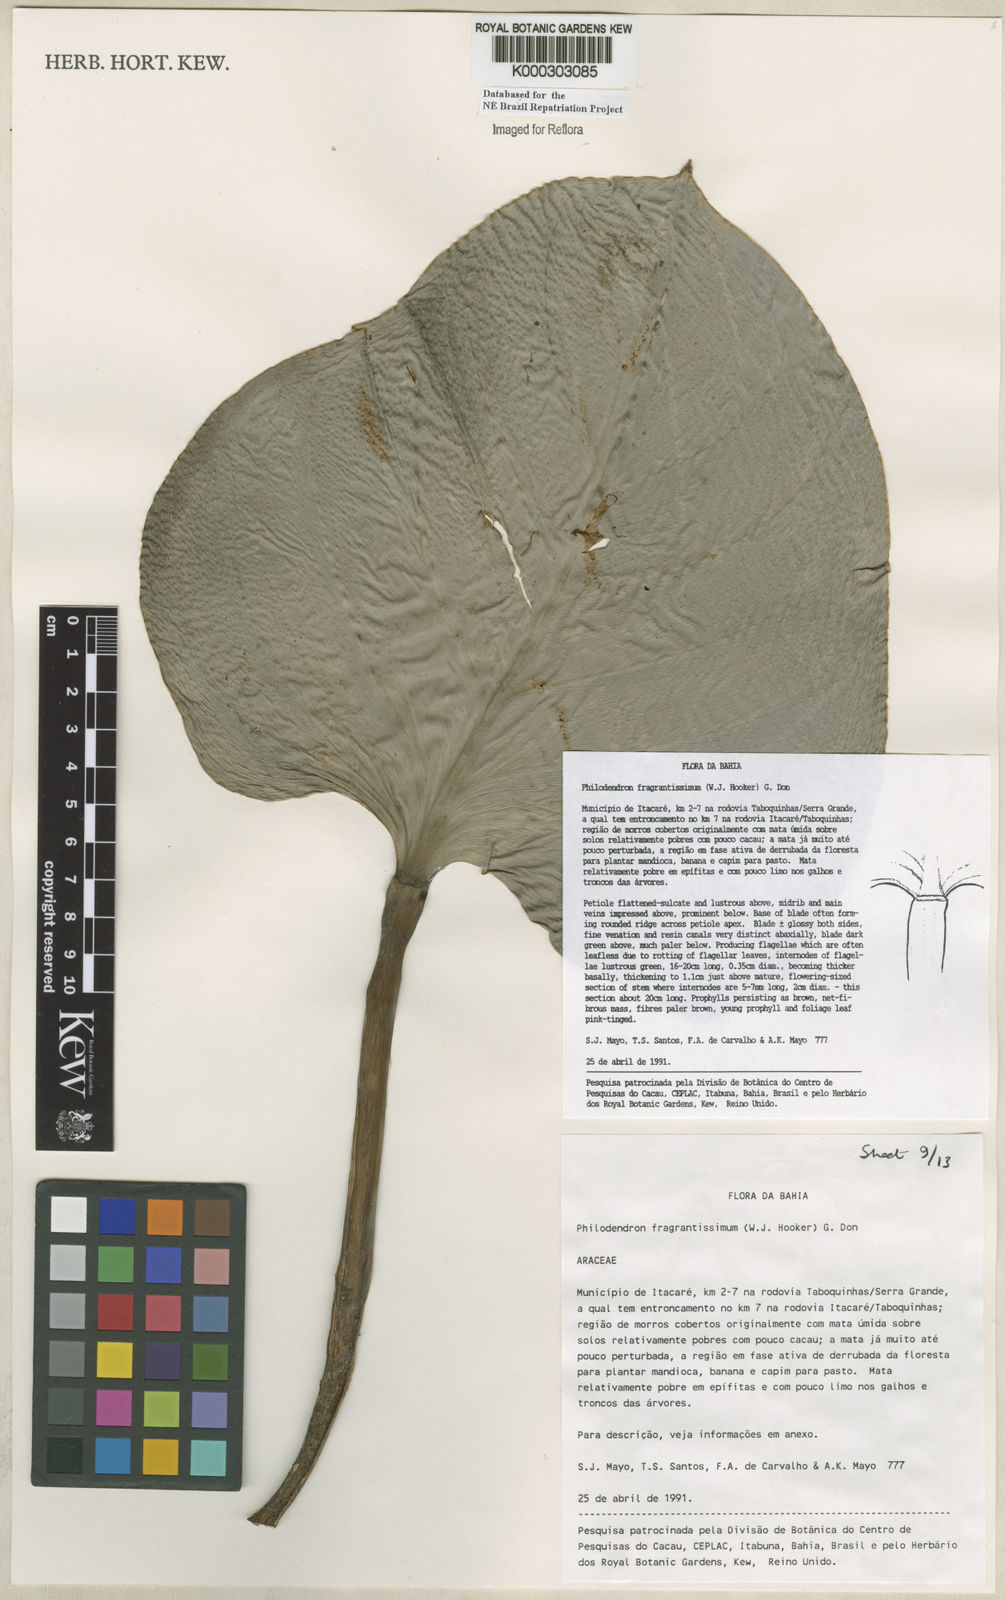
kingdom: Plantae
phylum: Tracheophyta
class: Liliopsida
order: Alismatales
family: Araceae
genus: Philodendron
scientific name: Philodendron fragrantissimum
